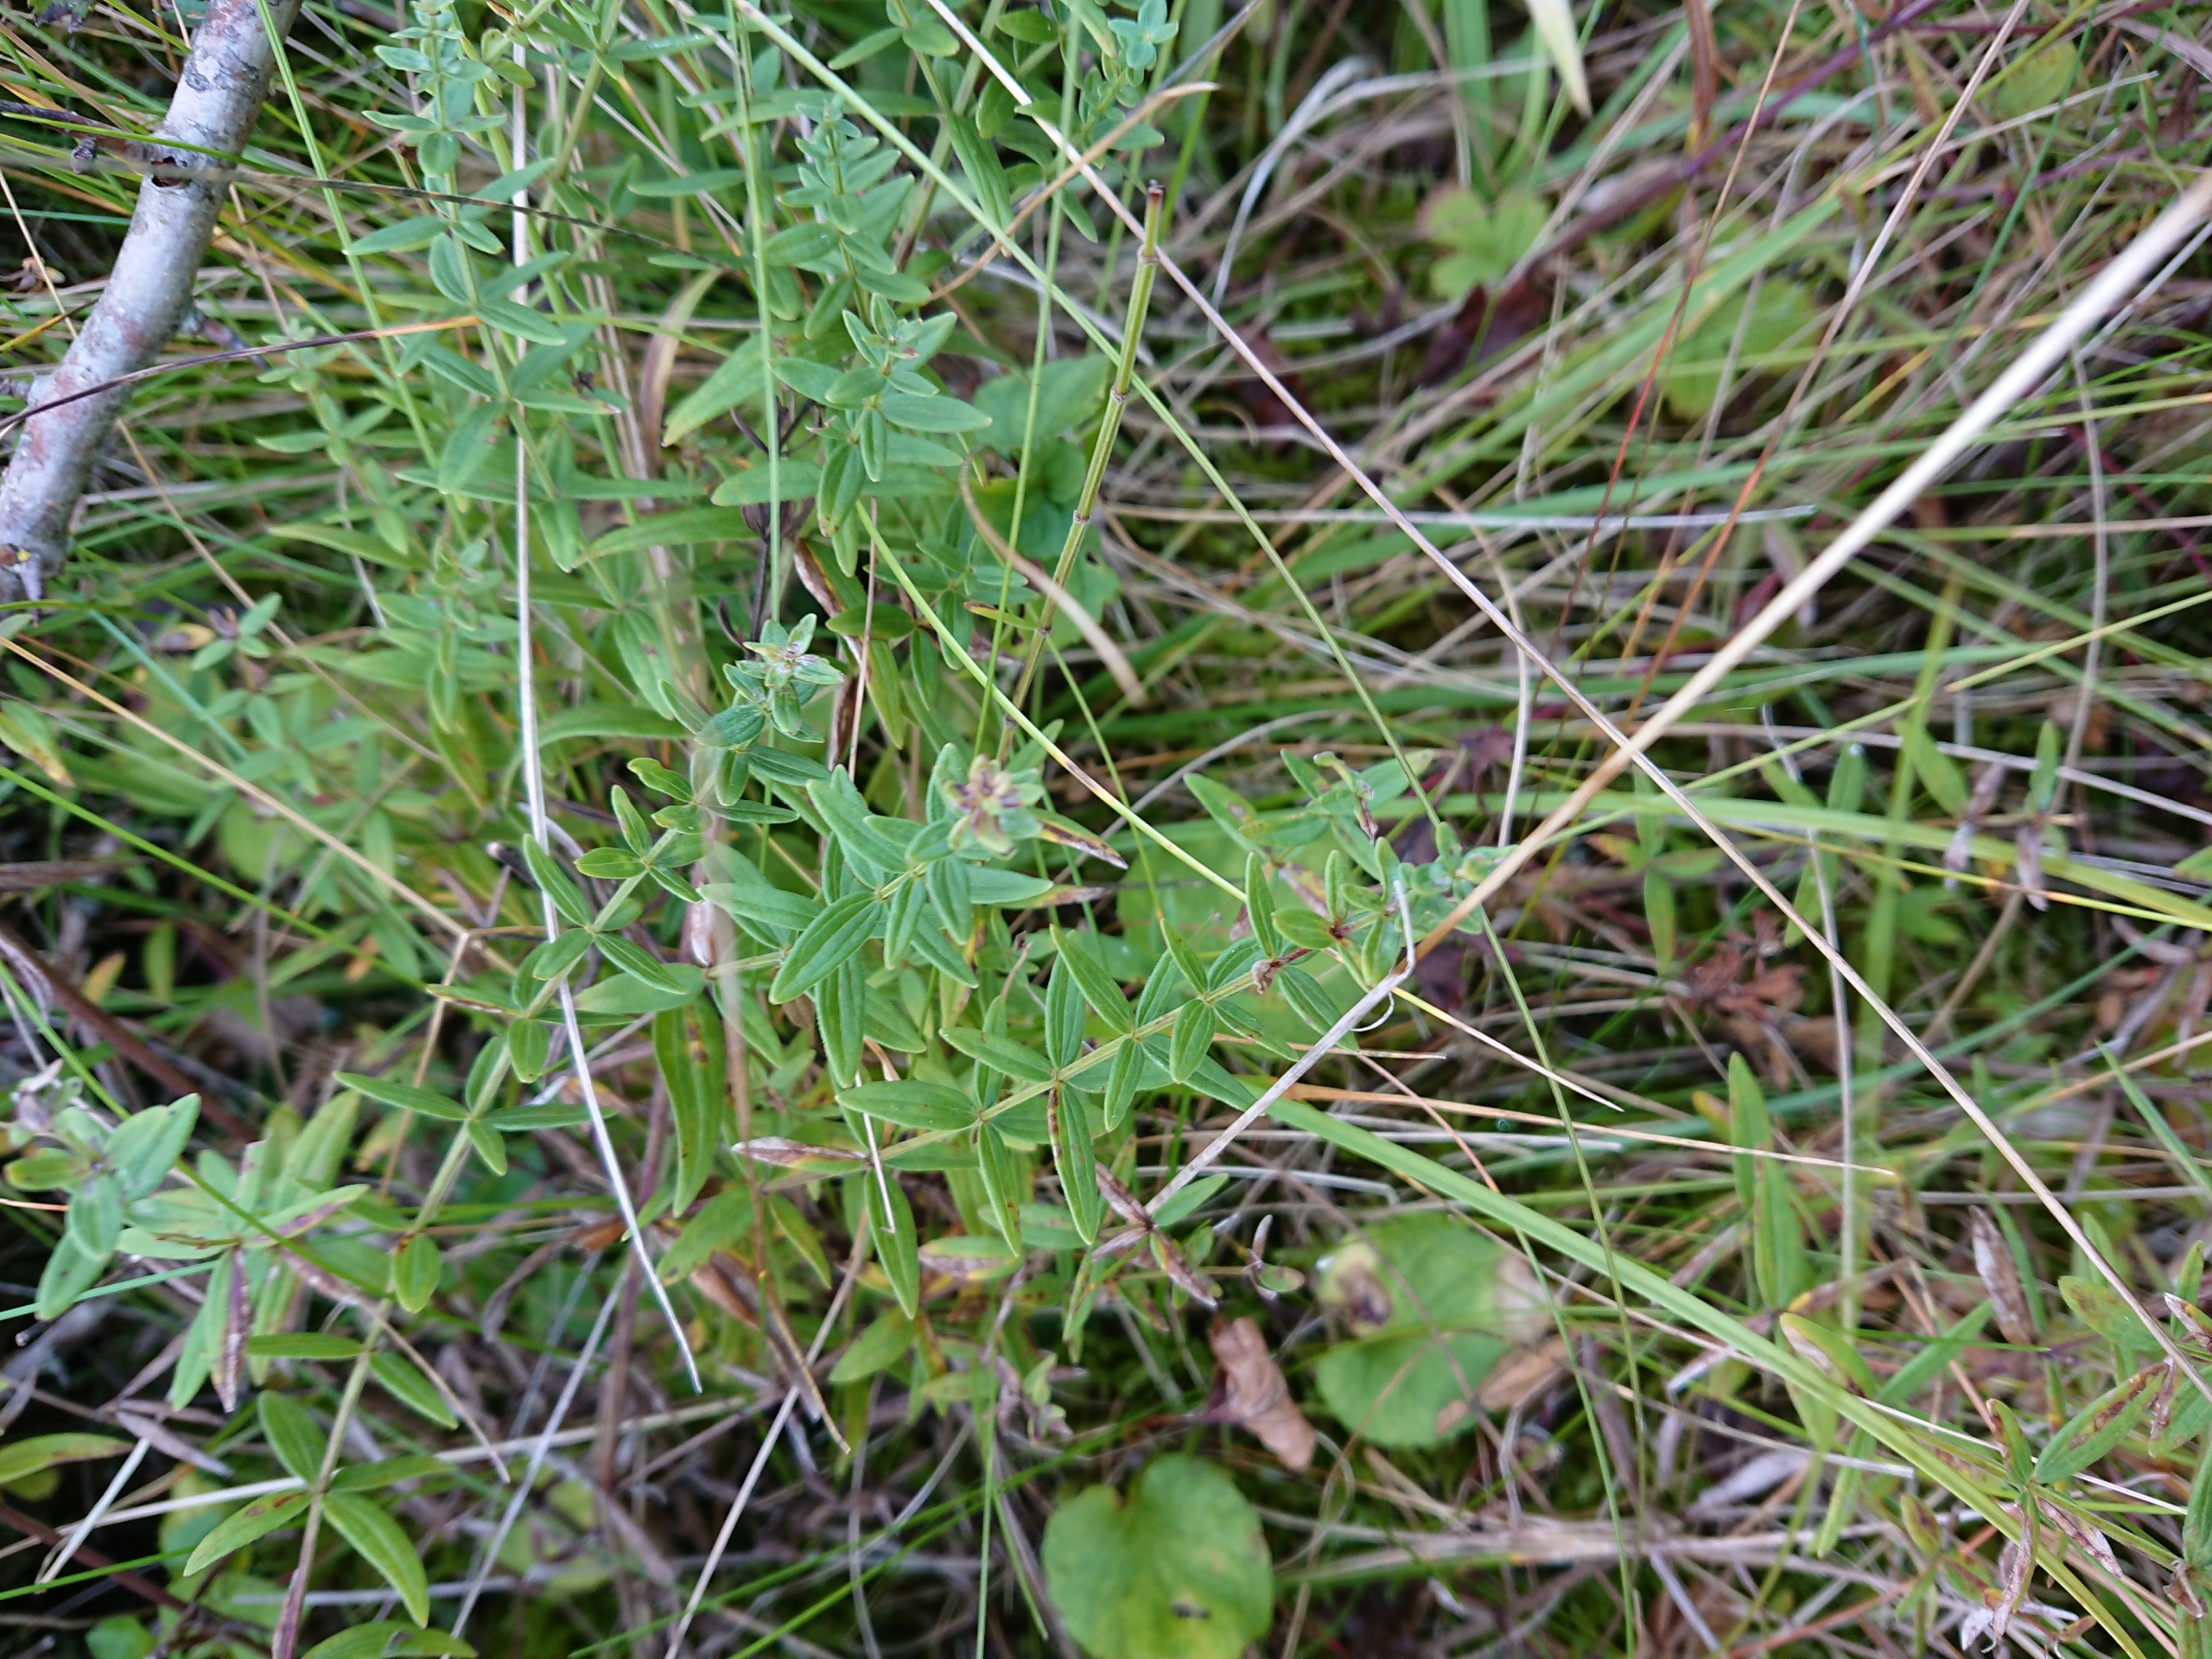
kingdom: Plantae
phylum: Tracheophyta
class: Magnoliopsida
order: Gentianales
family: Rubiaceae
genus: Galium
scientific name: Galium boreale
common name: Trenervet snerre
